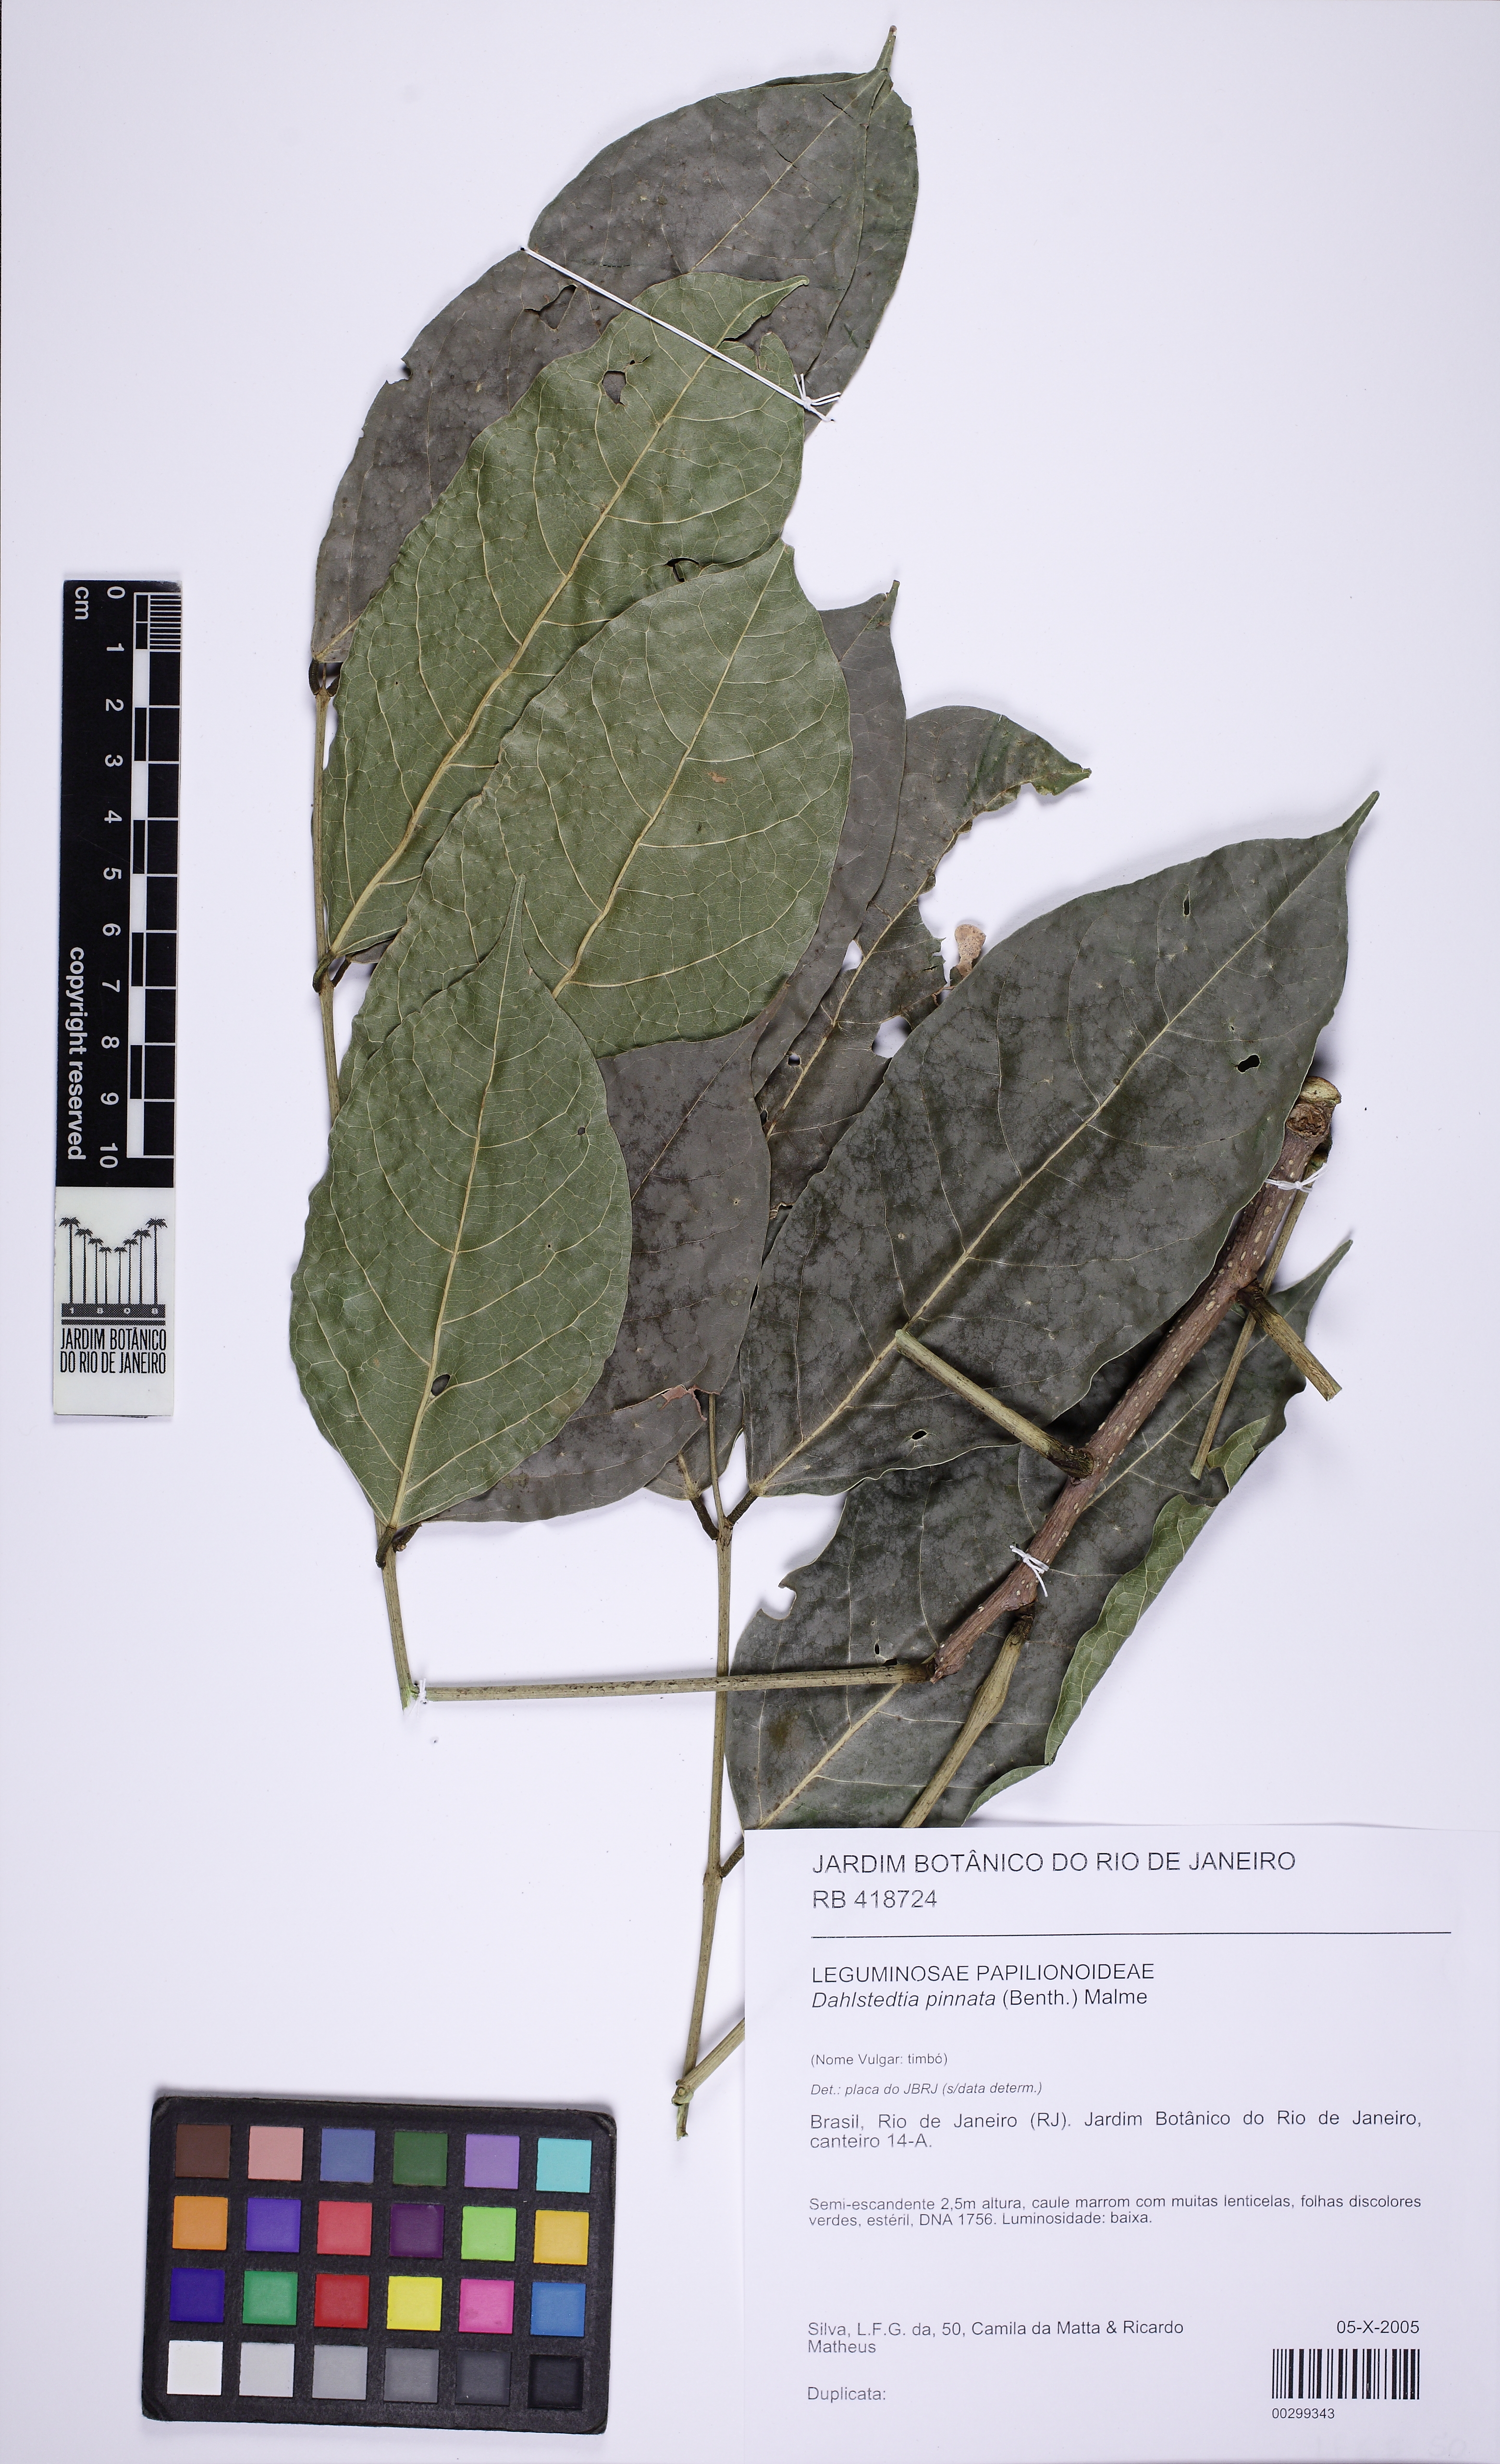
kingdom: Plantae
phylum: Tracheophyta
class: Magnoliopsida
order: Fabales
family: Fabaceae
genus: Dahlstedtia
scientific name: Dahlstedtia pinnata
